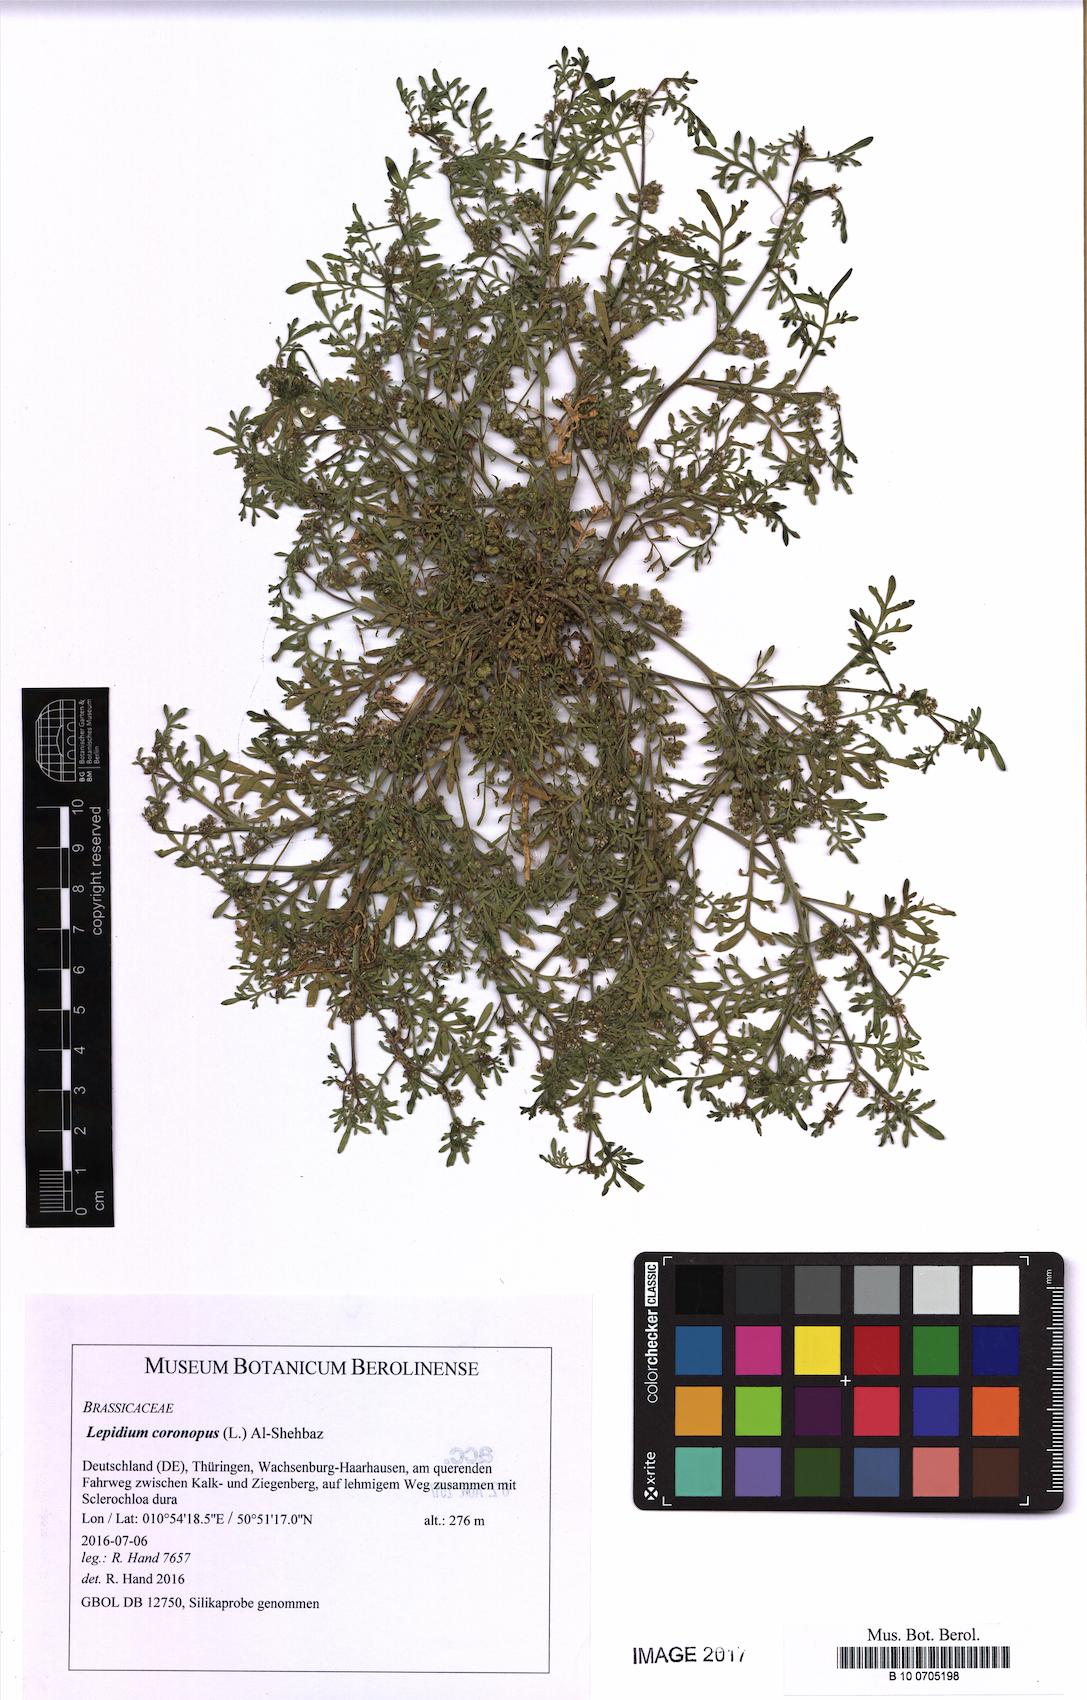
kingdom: Plantae
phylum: Tracheophyta
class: Magnoliopsida
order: Brassicales
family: Brassicaceae
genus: Lepidium
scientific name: Lepidium coronopus
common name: Greater swinecress
